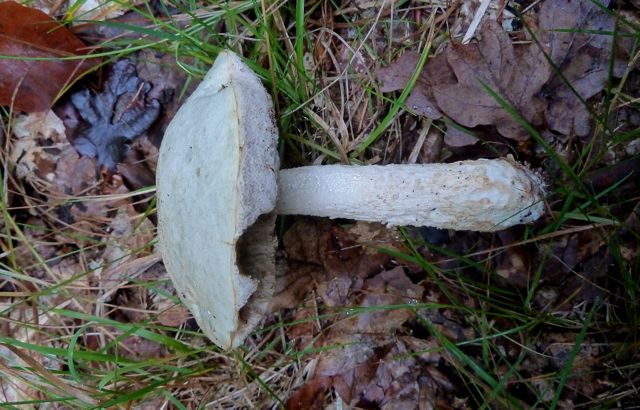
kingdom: Fungi
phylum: Basidiomycota
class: Agaricomycetes
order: Boletales
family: Boletaceae
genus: Leccinum
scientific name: Leccinum scabrum
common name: hvid skælrørhat
